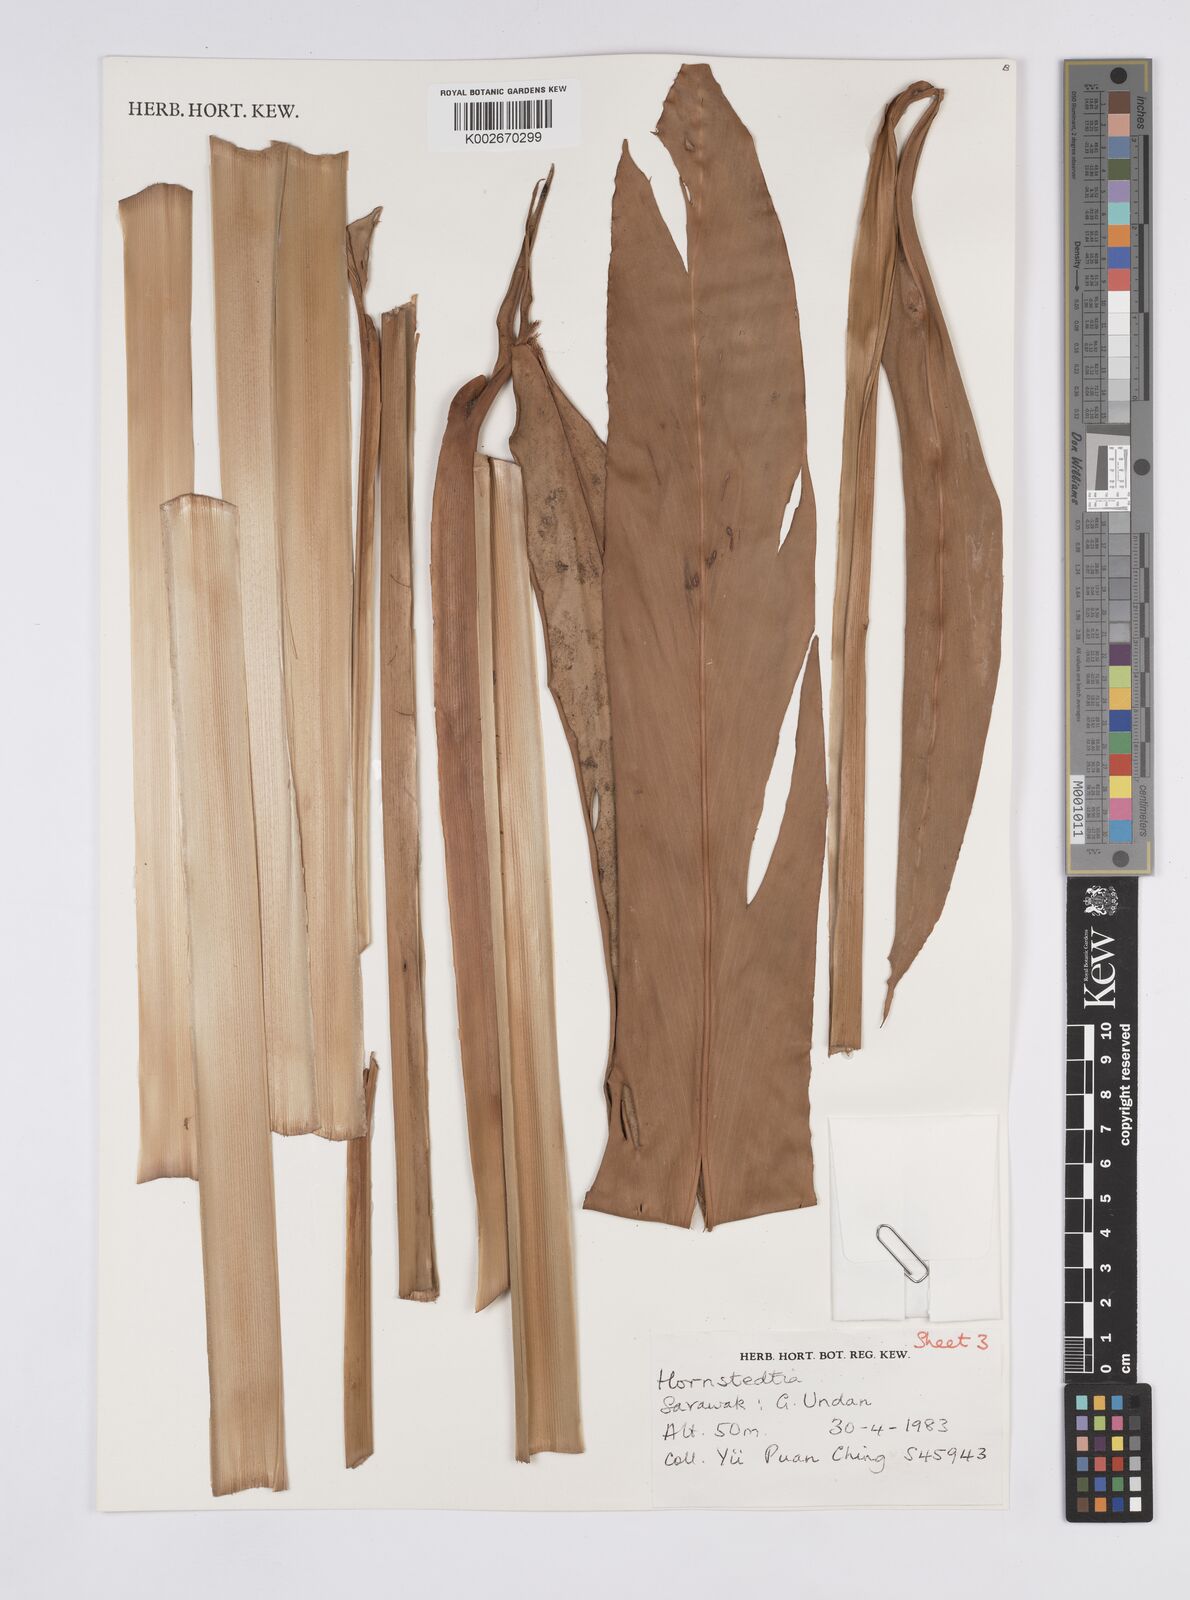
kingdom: Plantae
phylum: Tracheophyta
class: Liliopsida
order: Zingiberales
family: Zingiberaceae
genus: Hornstedtia
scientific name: Hornstedtia
